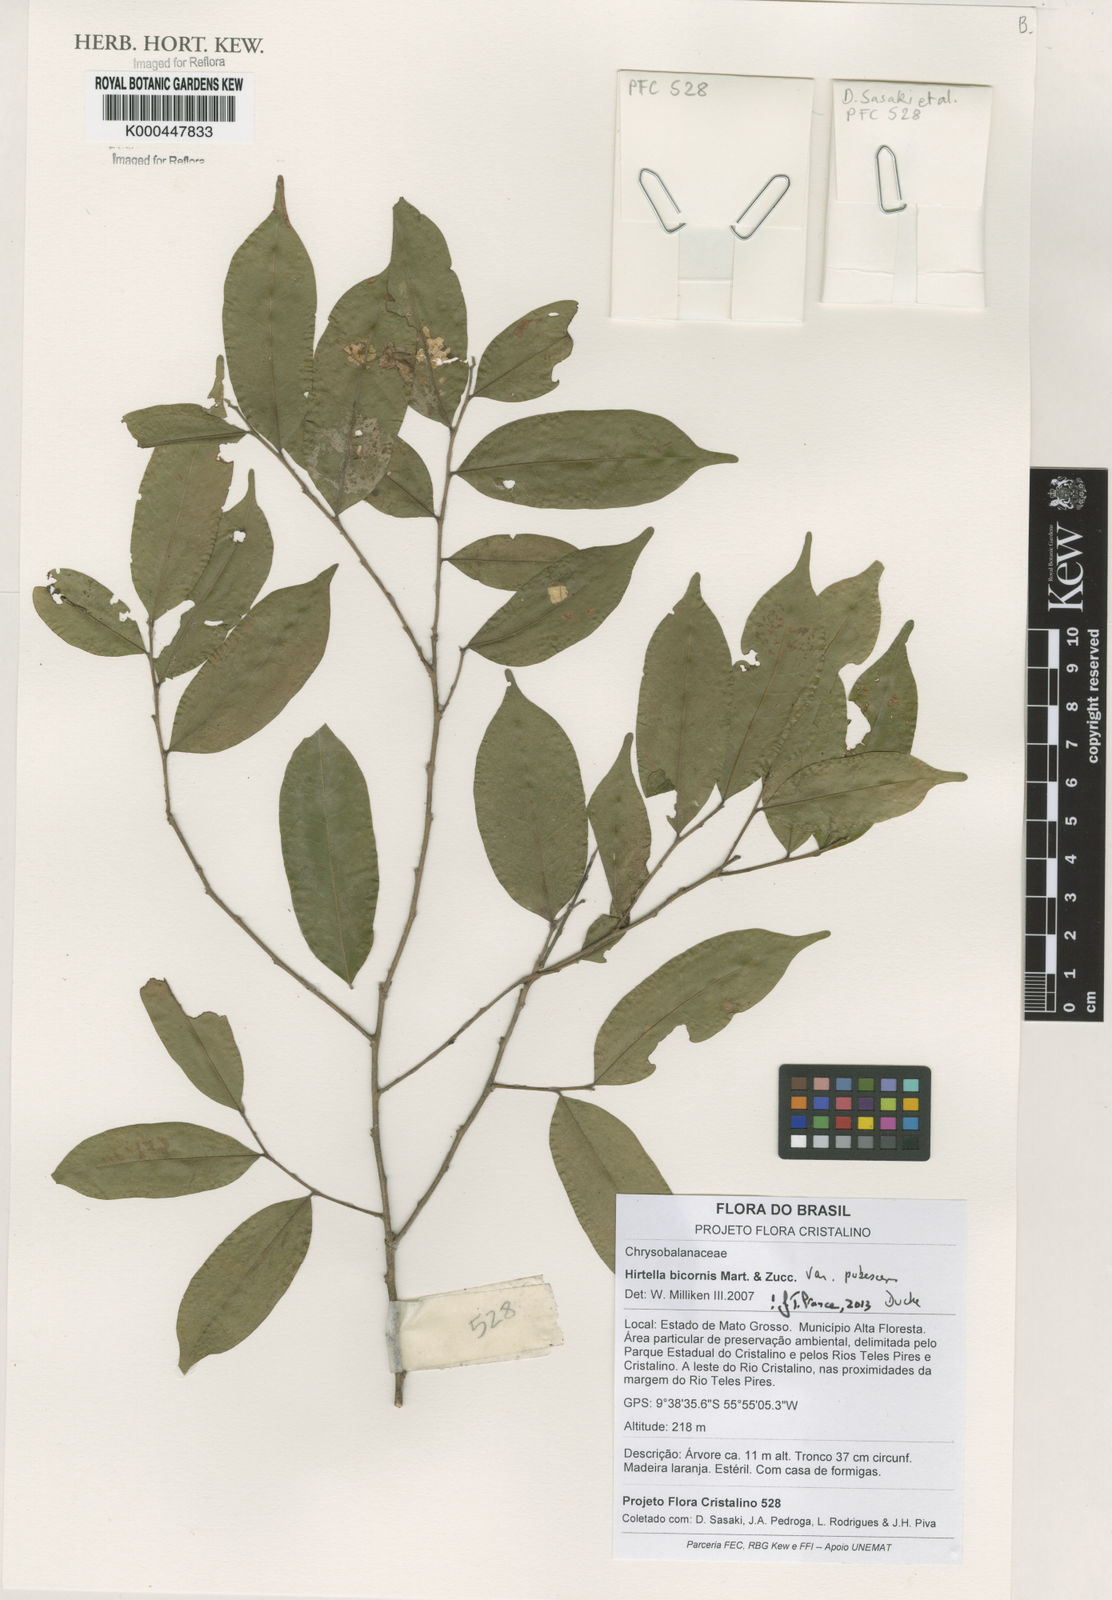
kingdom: Plantae
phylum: Tracheophyta
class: Magnoliopsida
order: Malpighiales
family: Chrysobalanaceae
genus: Hirtella
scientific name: Hirtella bicornis
